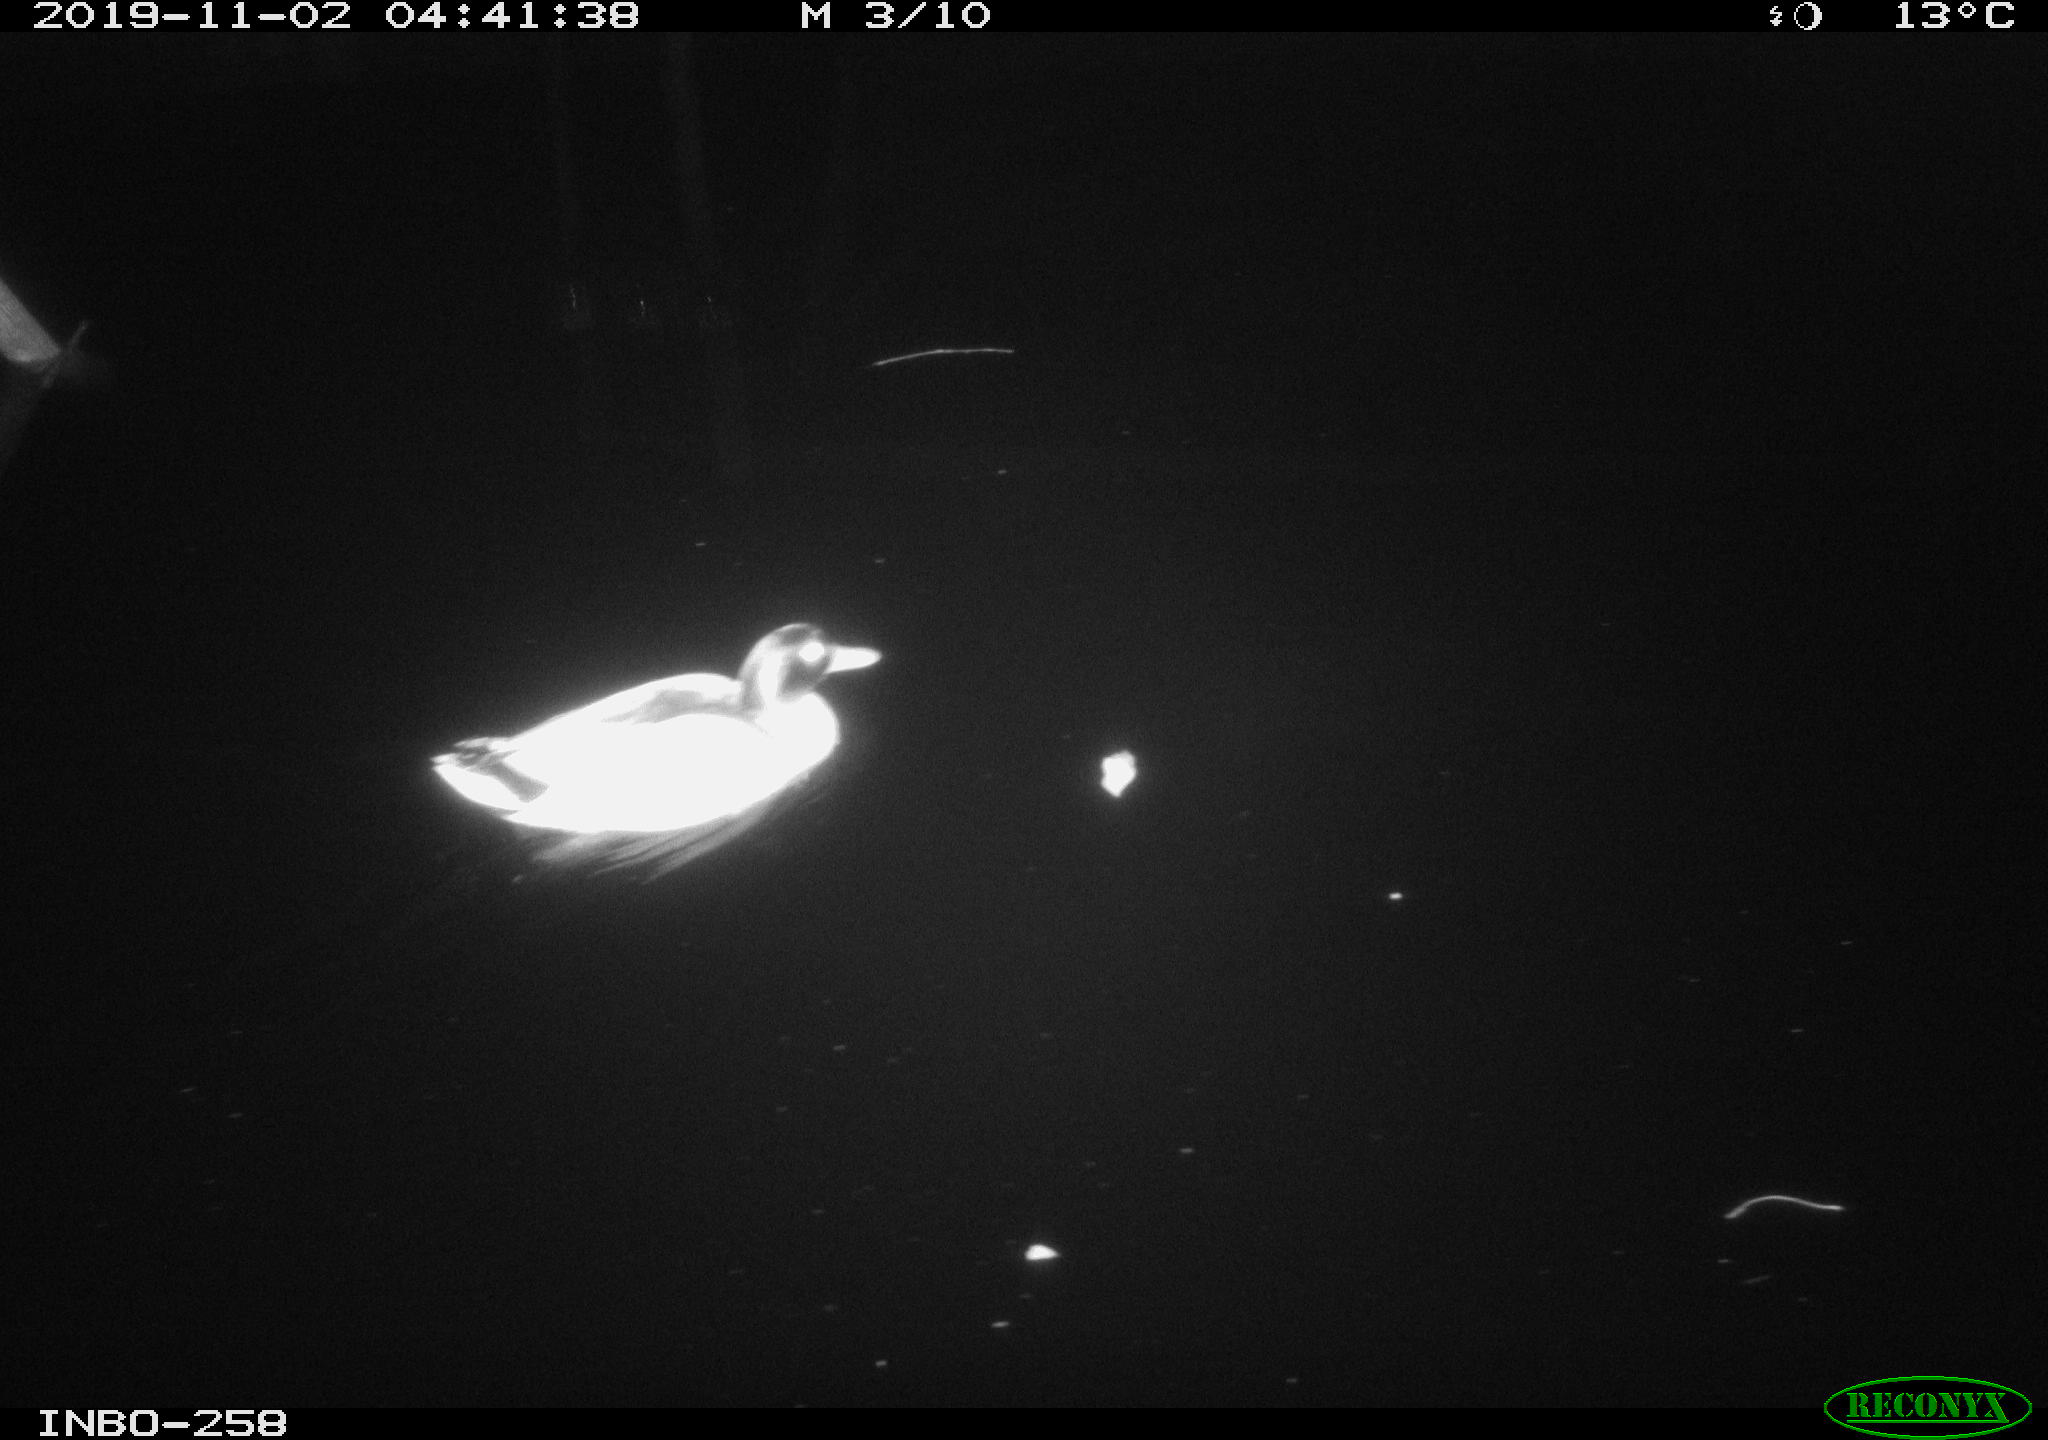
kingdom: Animalia
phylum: Chordata
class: Aves
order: Anseriformes
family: Anatidae
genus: Anas
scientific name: Anas platyrhynchos
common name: Mallard
